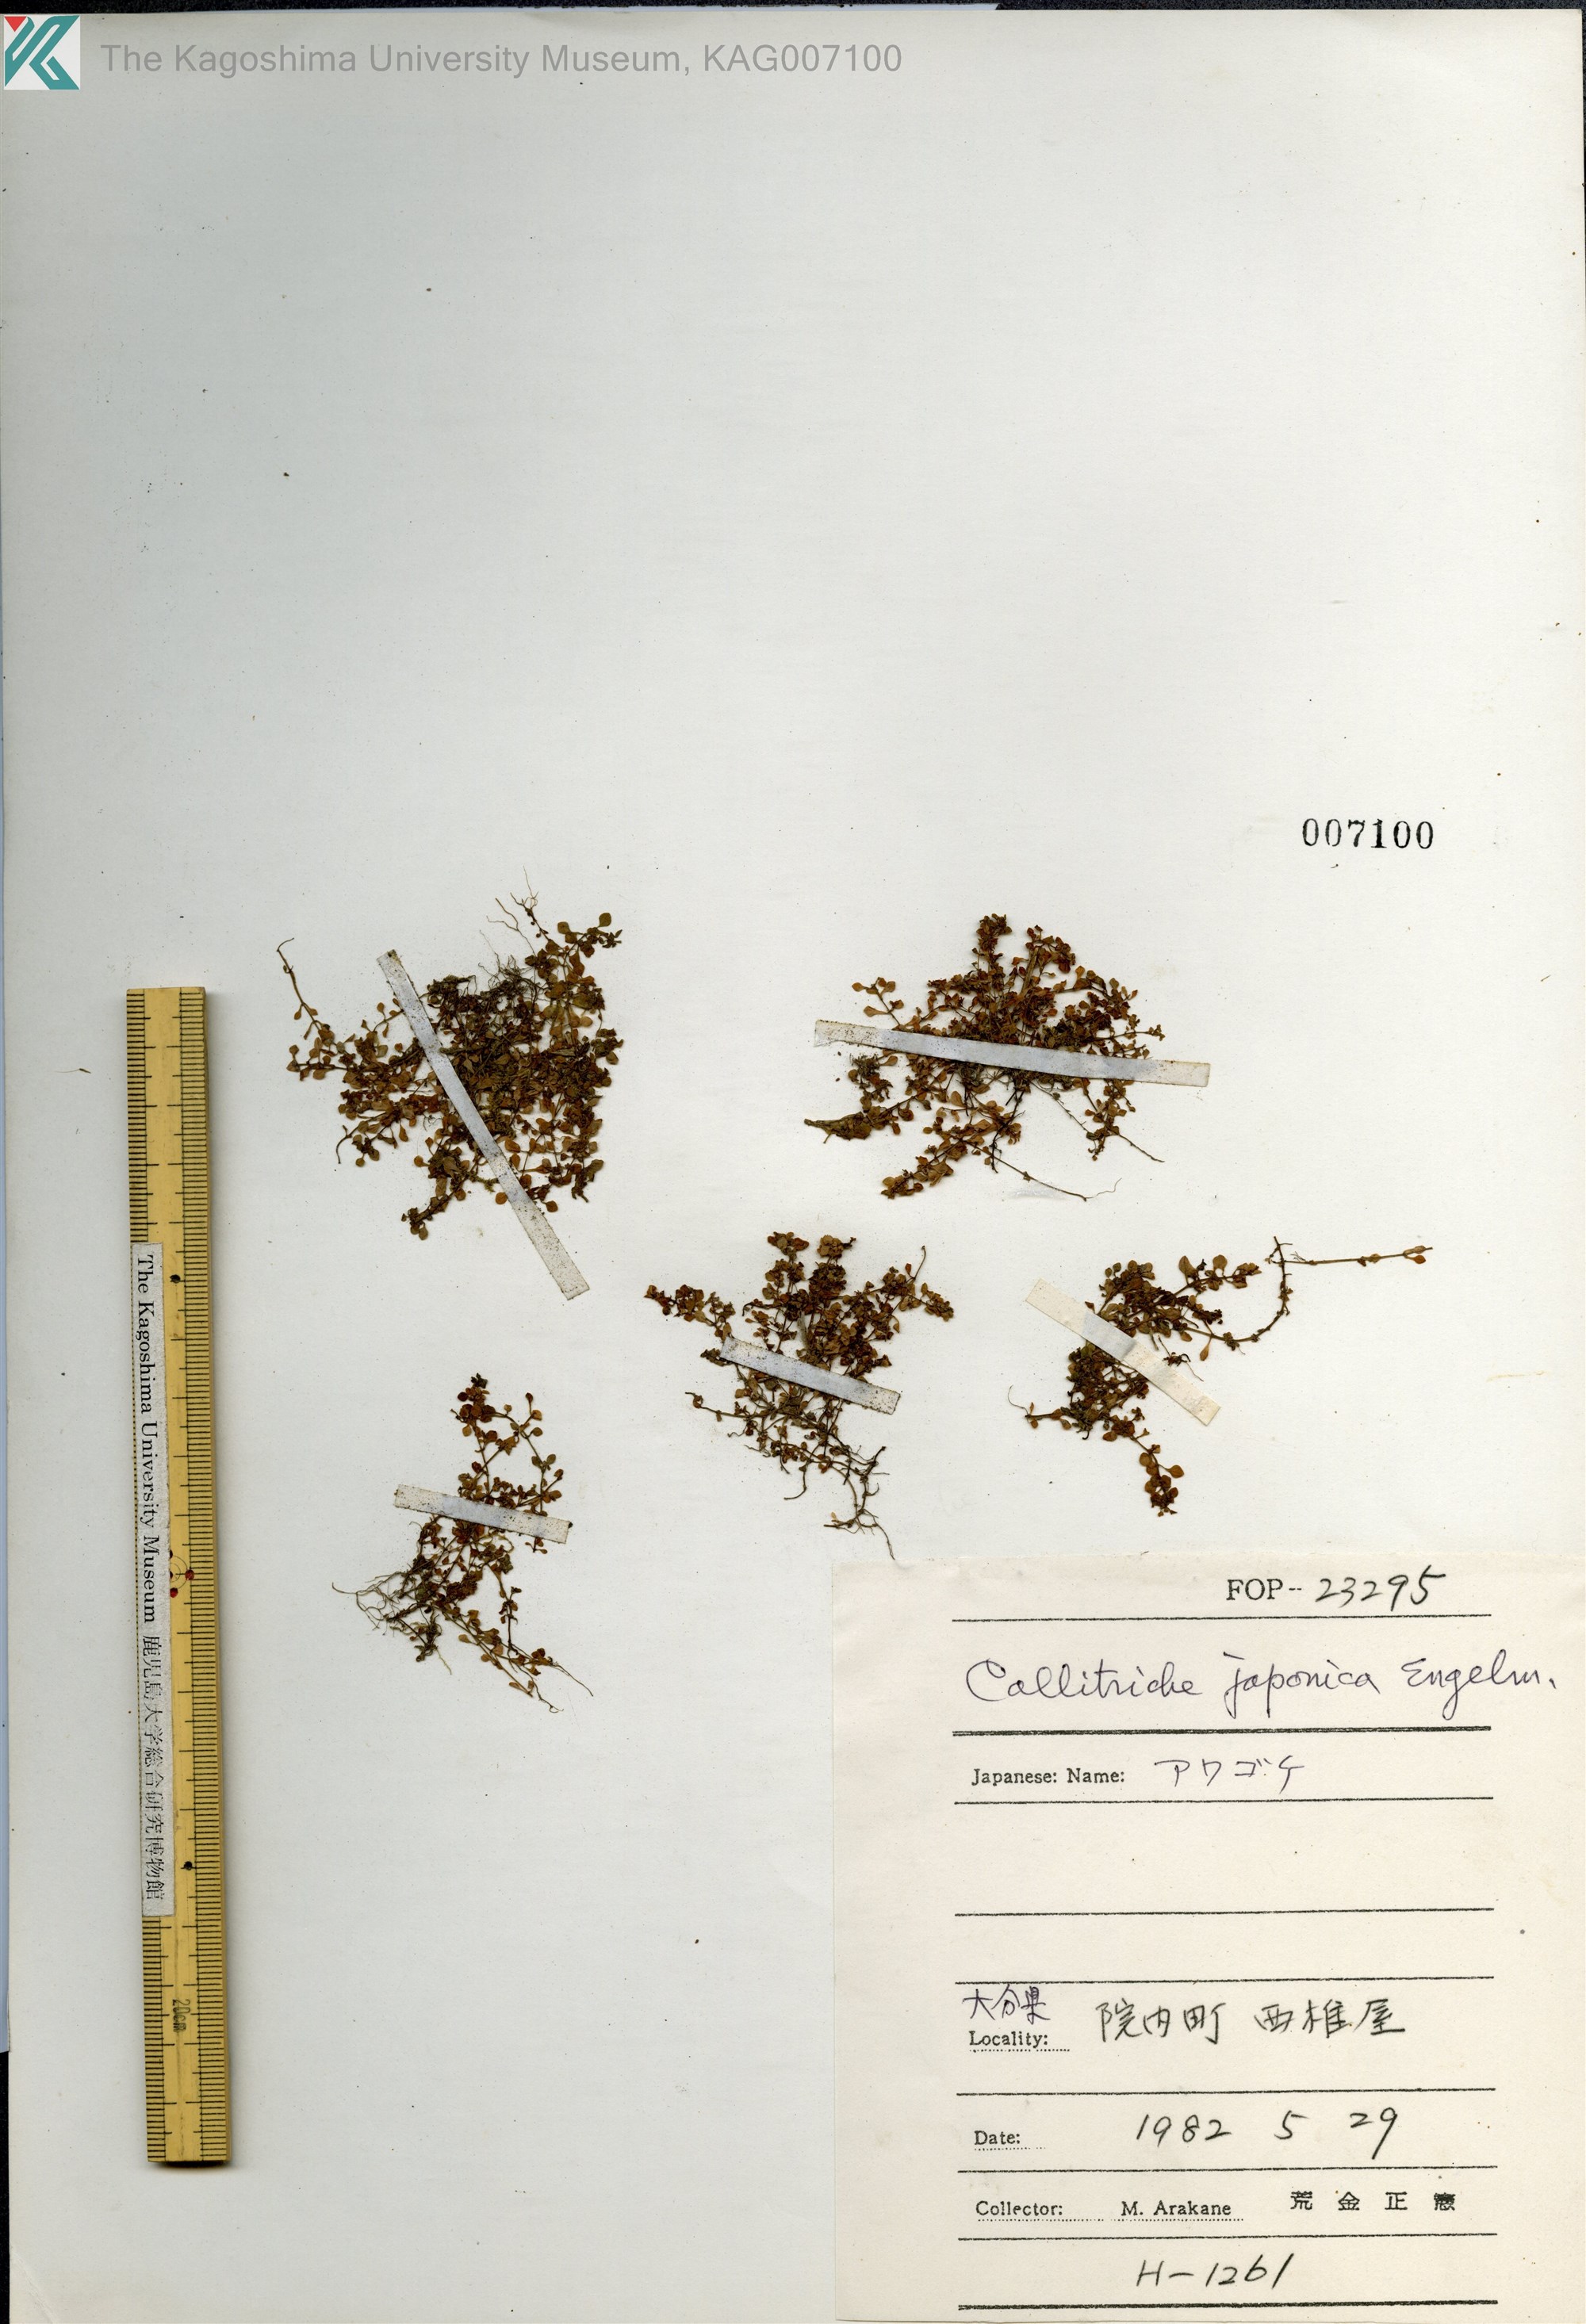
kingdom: Plantae
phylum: Tracheophyta
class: Magnoliopsida
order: Lamiales
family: Plantaginaceae
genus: Callitriche
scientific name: Callitriche japonica
